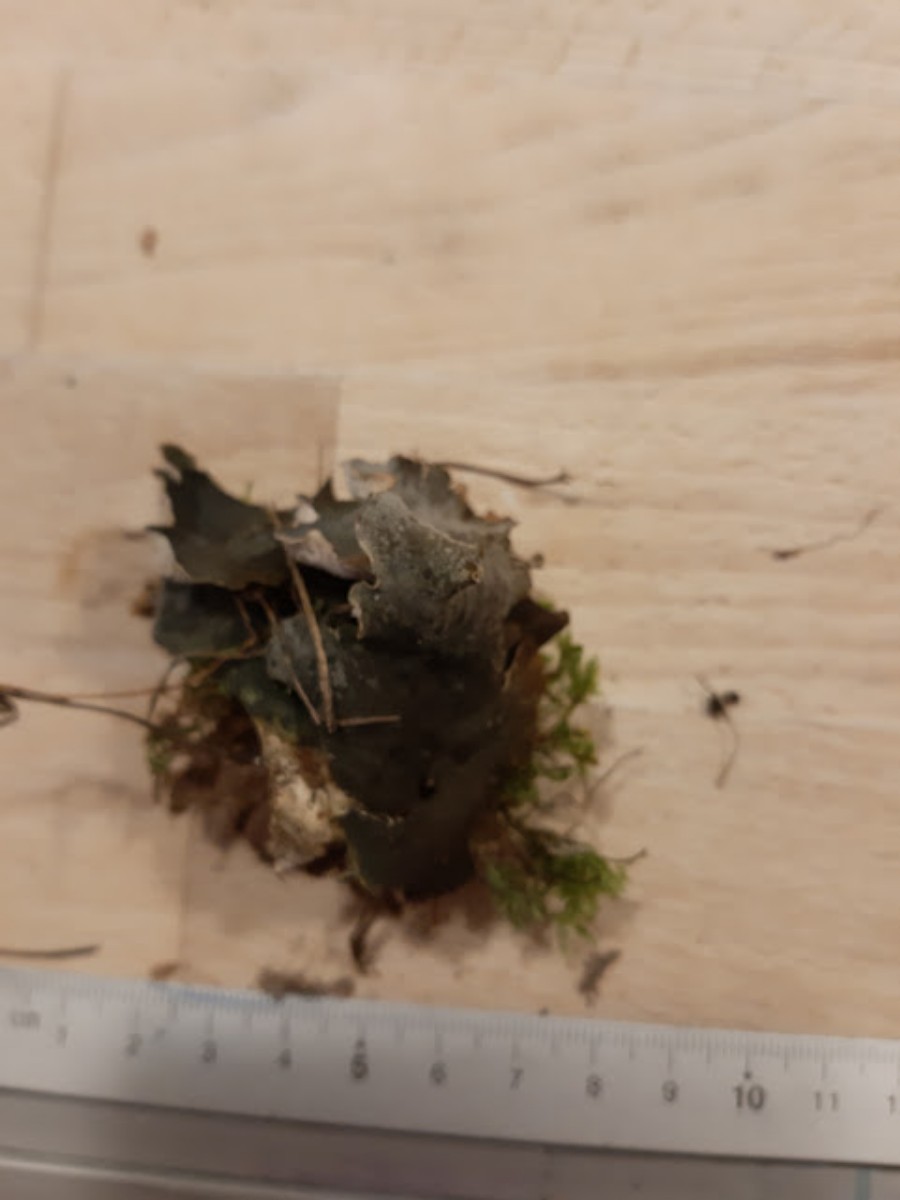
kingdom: Fungi
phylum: Ascomycota
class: Lecanoromycetes
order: Peltigerales
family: Peltigeraceae
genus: Peltigera
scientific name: Peltigera
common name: skjoldlav
